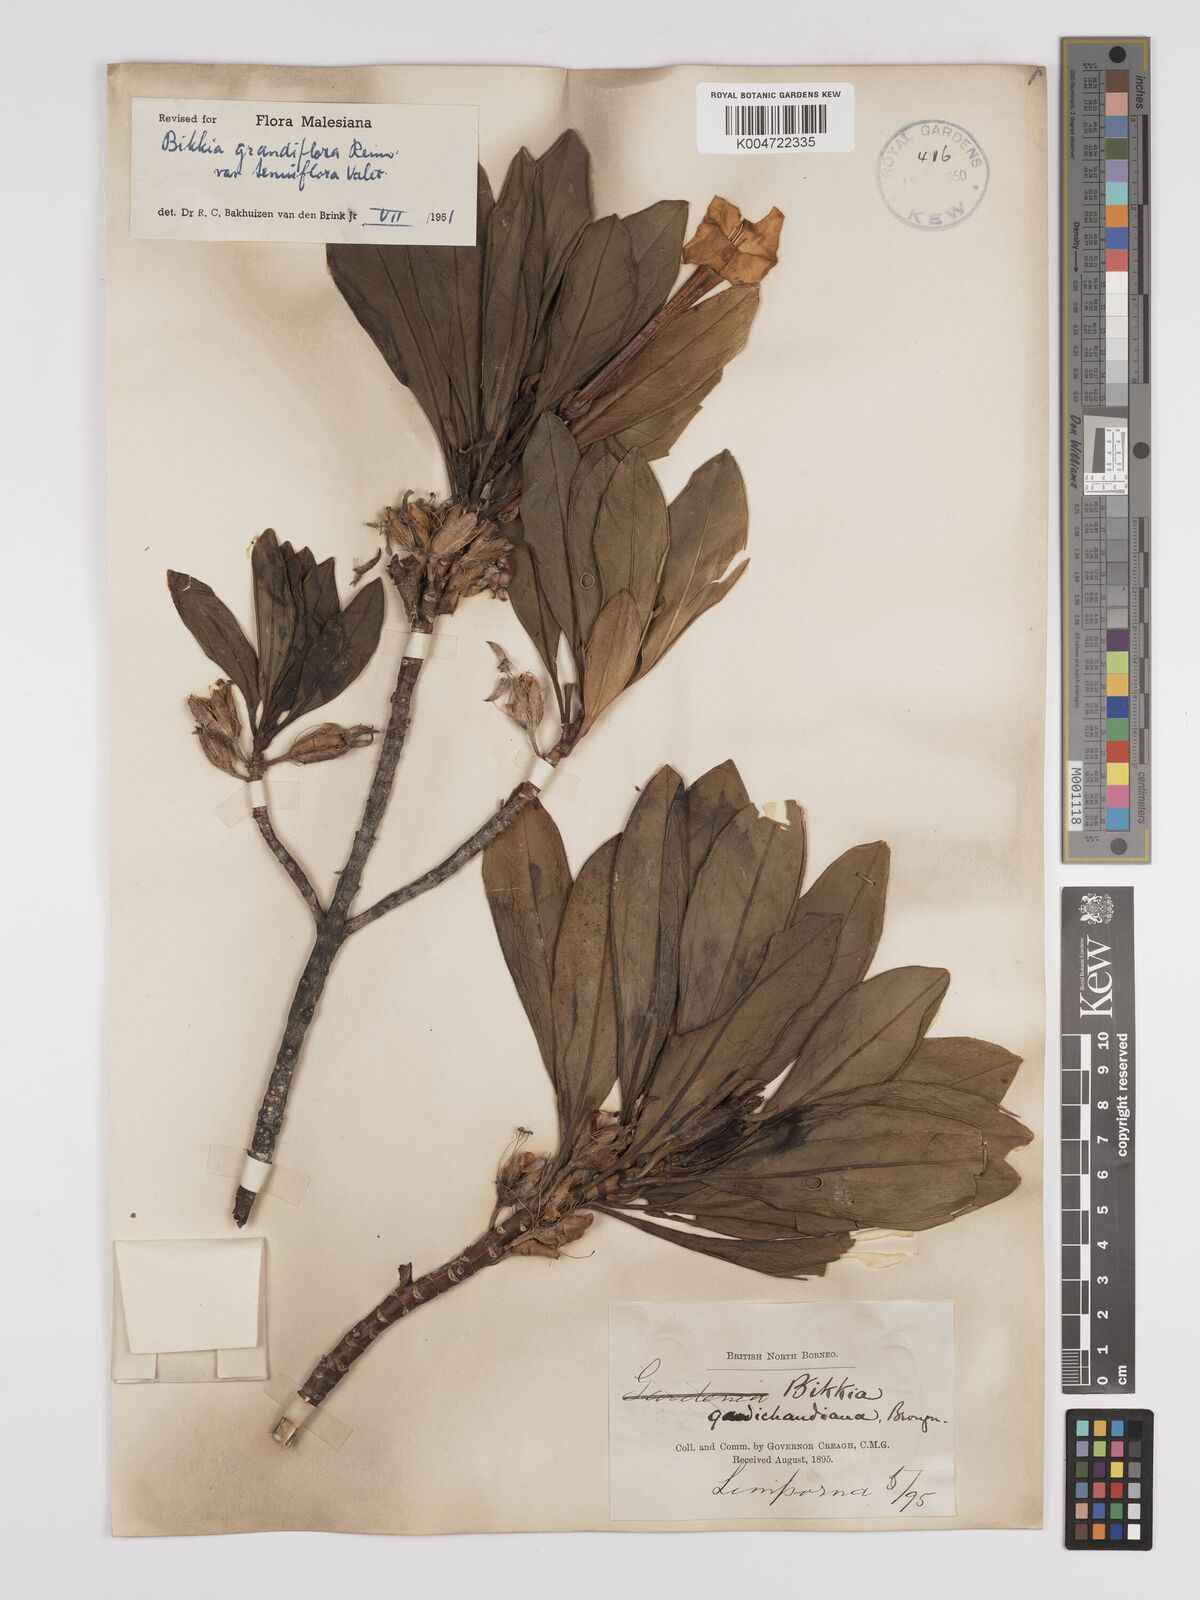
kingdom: Plantae
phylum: Tracheophyta
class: Magnoliopsida
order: Gentianales
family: Rubiaceae
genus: Bikkia
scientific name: Bikkia tetrandra
